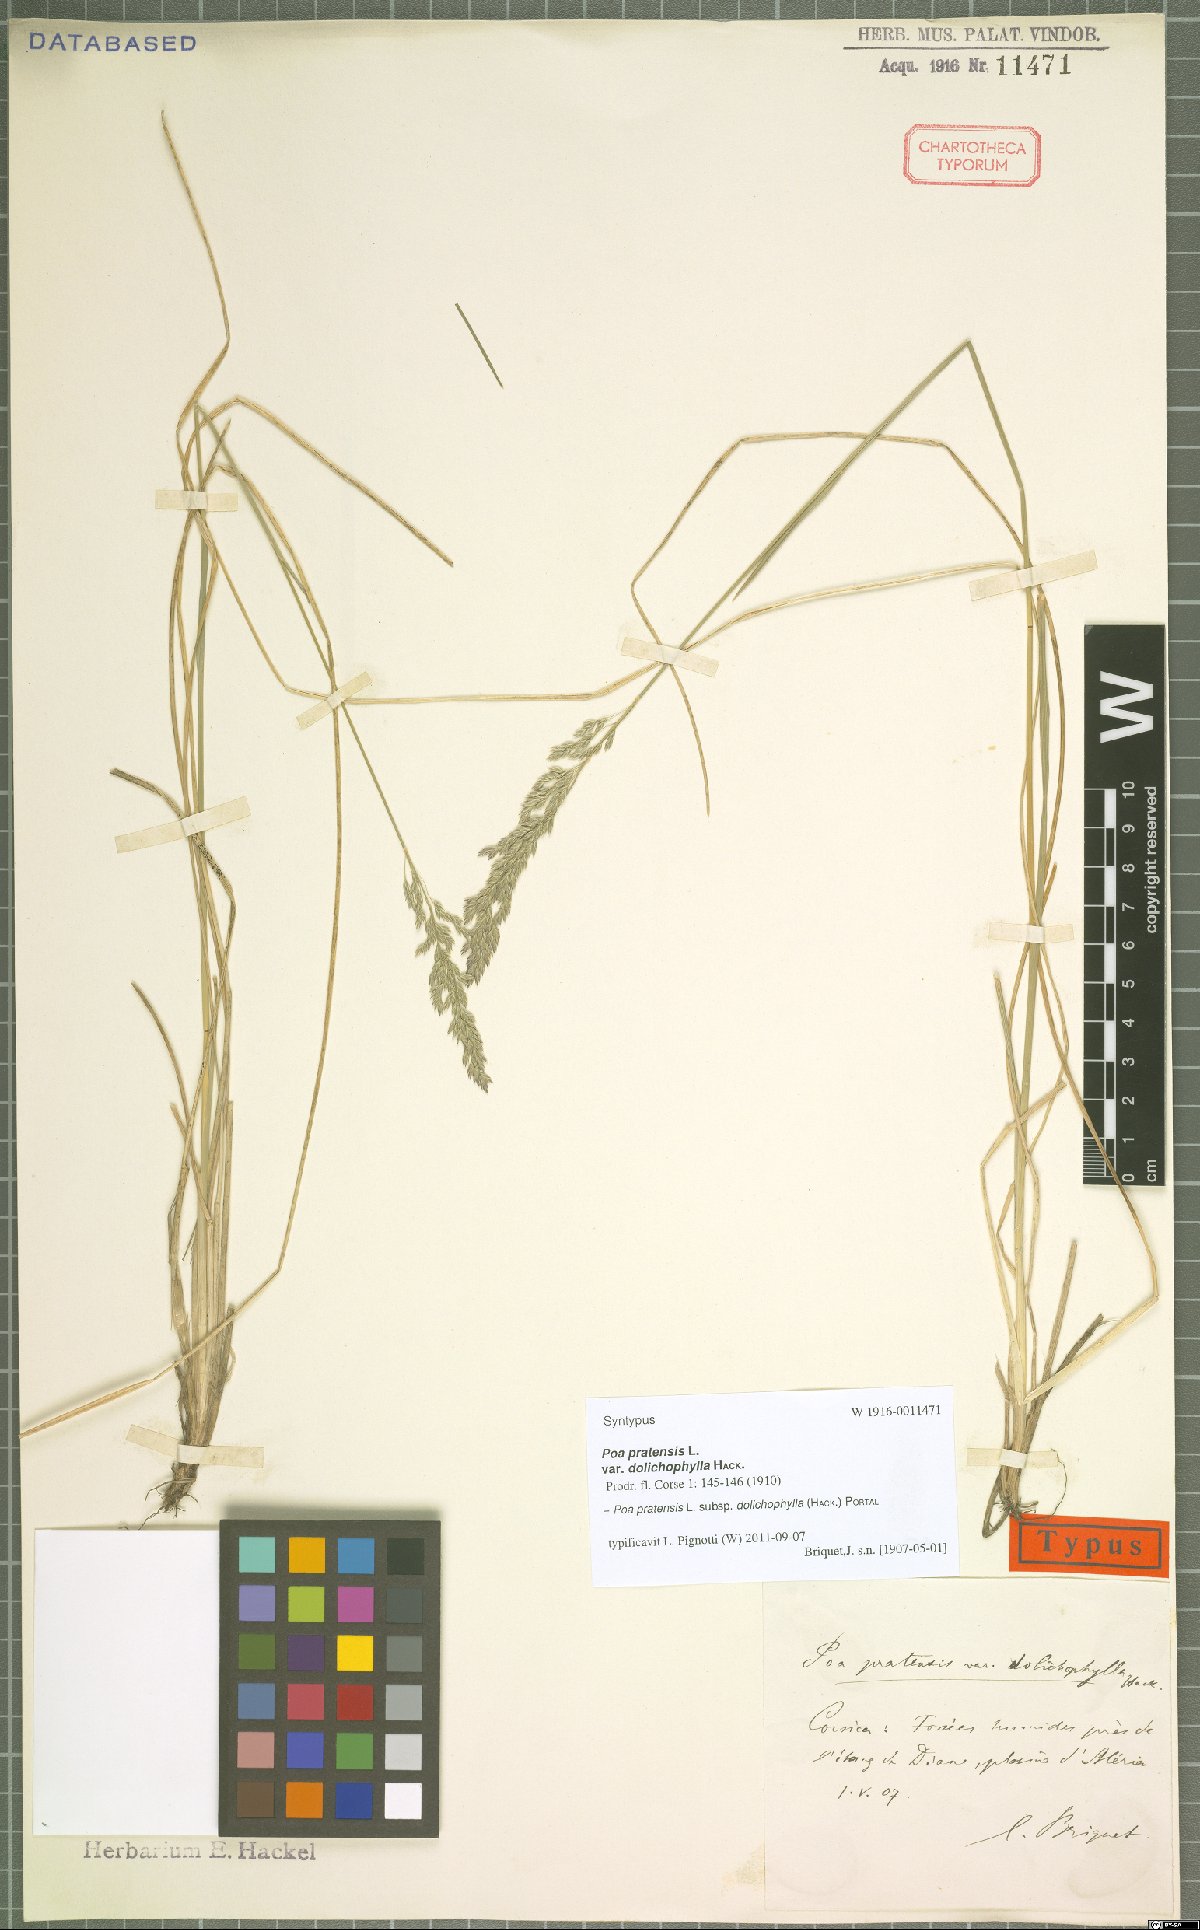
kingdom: Plantae
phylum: Tracheophyta
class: Liliopsida
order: Poales
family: Poaceae
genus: Poa
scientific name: Poa pratensis
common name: Kentucky bluegrass
